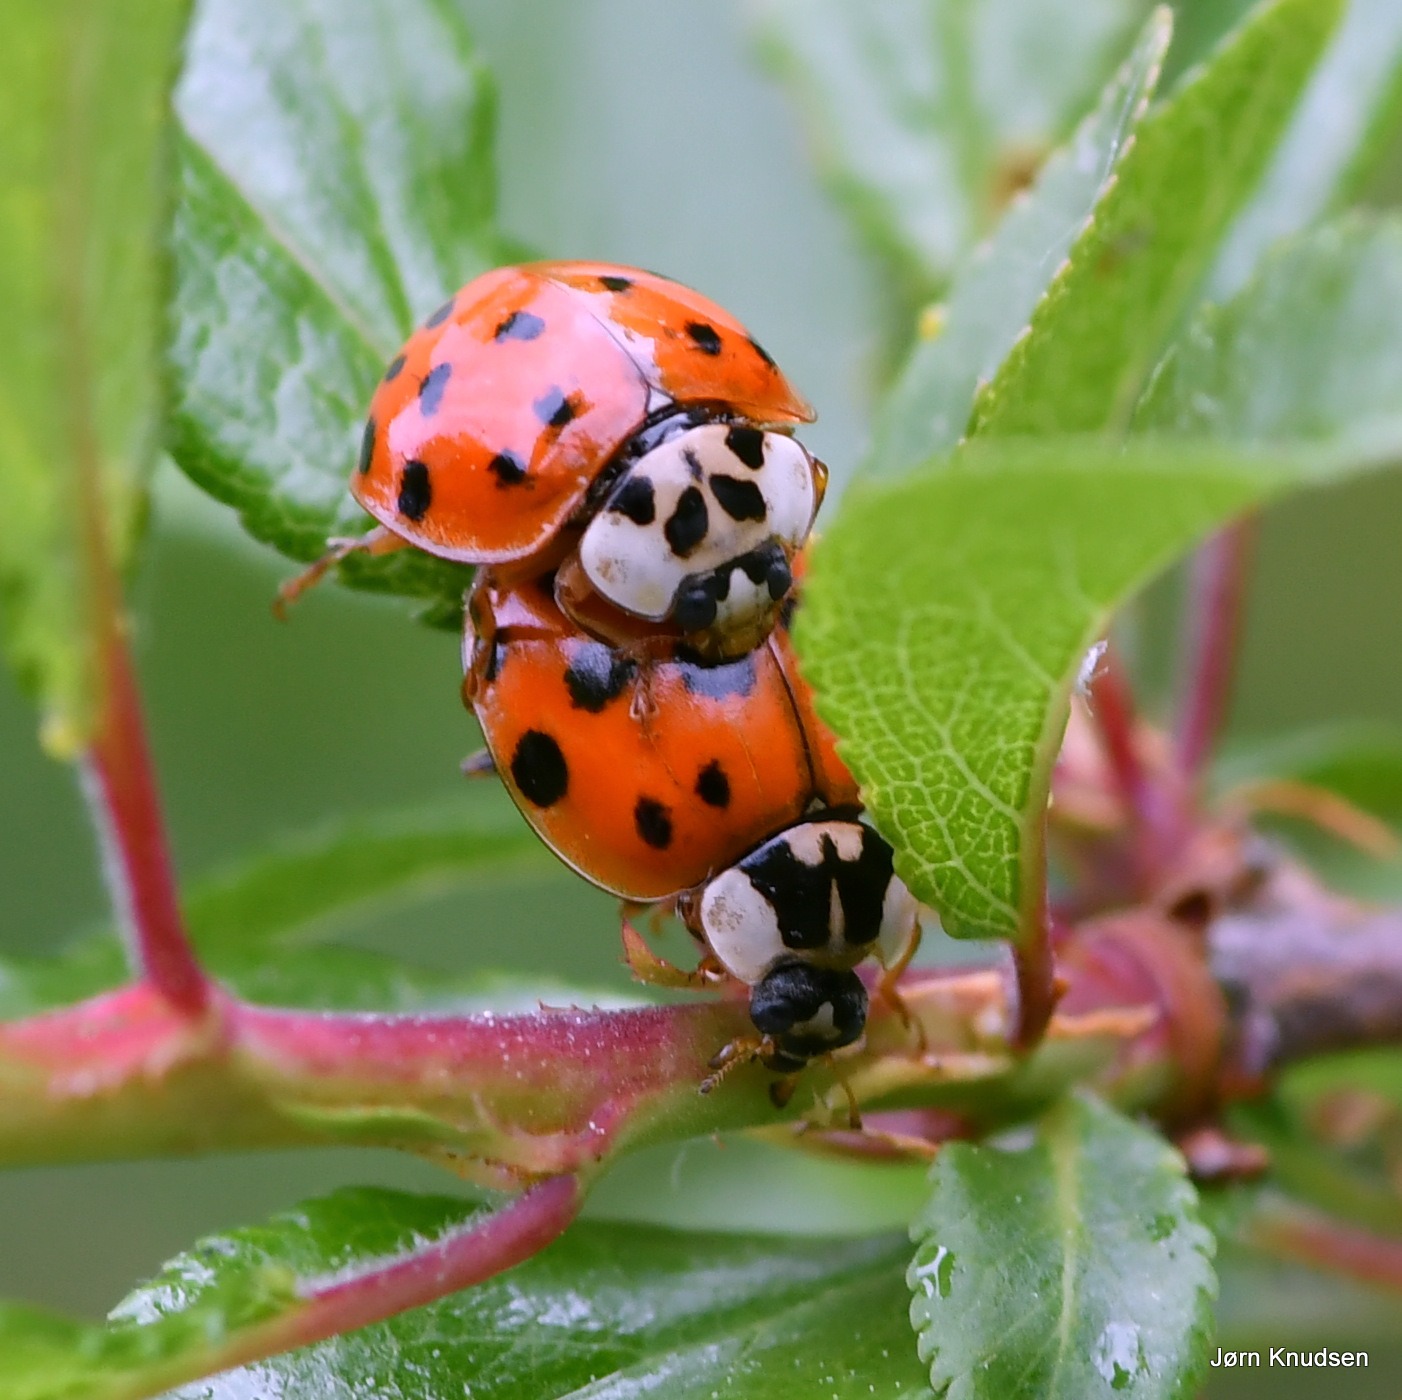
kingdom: Animalia
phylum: Arthropoda
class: Insecta
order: Coleoptera
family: Coccinellidae
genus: Harmonia
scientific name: Harmonia axyridis
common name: Harlekinmariehøne
